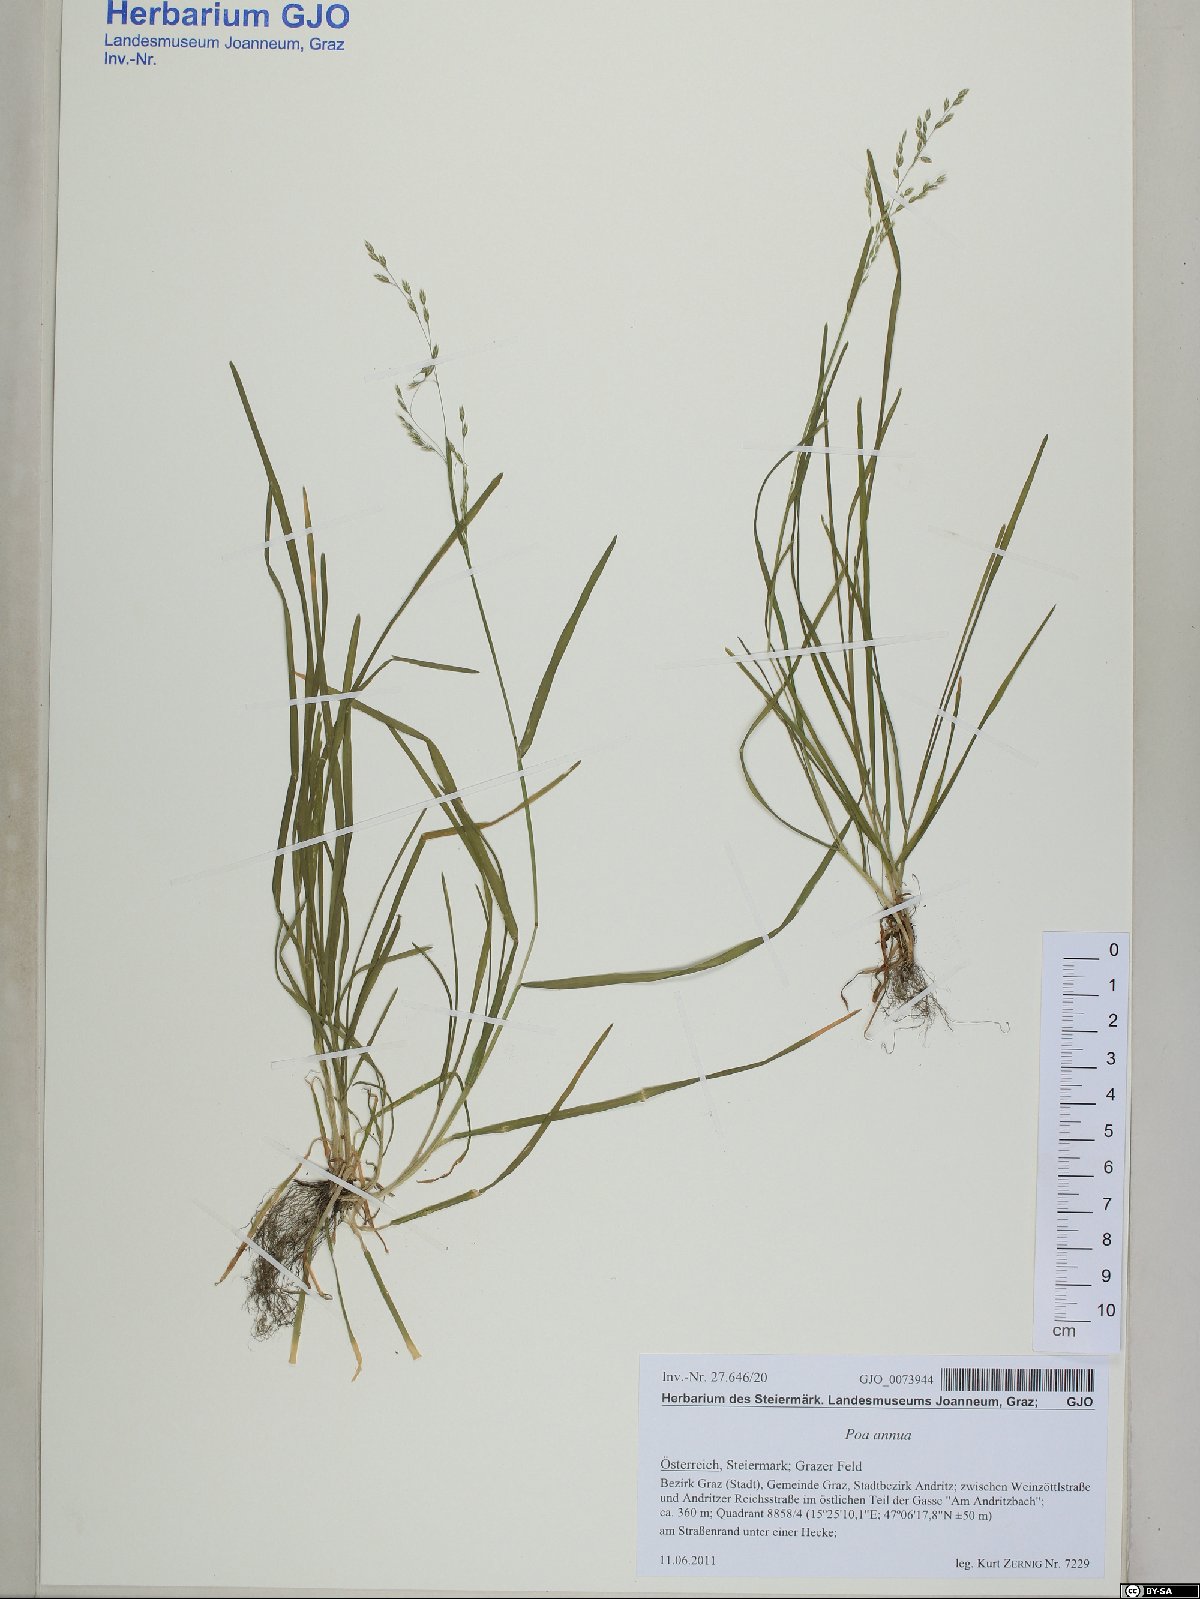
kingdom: Plantae
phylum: Tracheophyta
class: Liliopsida
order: Poales
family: Poaceae
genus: Poa
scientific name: Poa annua
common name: Annual bluegrass
